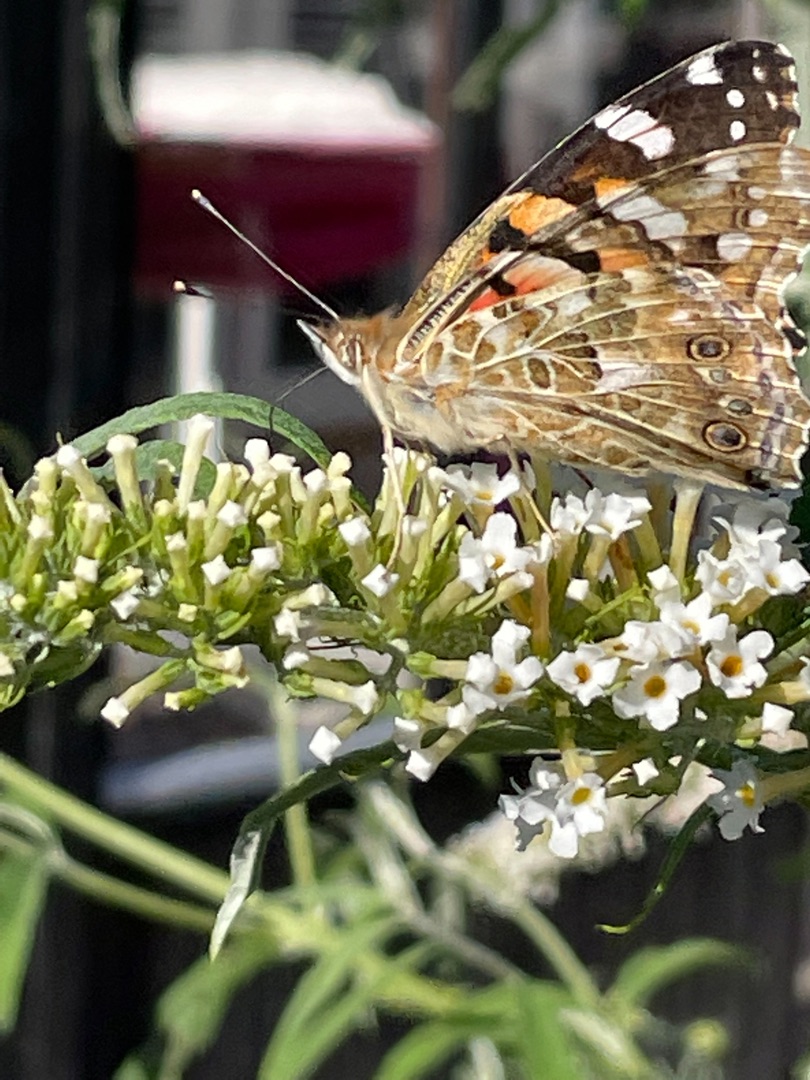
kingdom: Animalia
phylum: Arthropoda
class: Insecta
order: Lepidoptera
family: Nymphalidae
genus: Vanessa
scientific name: Vanessa cardui
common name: Tidselsommerfugl
